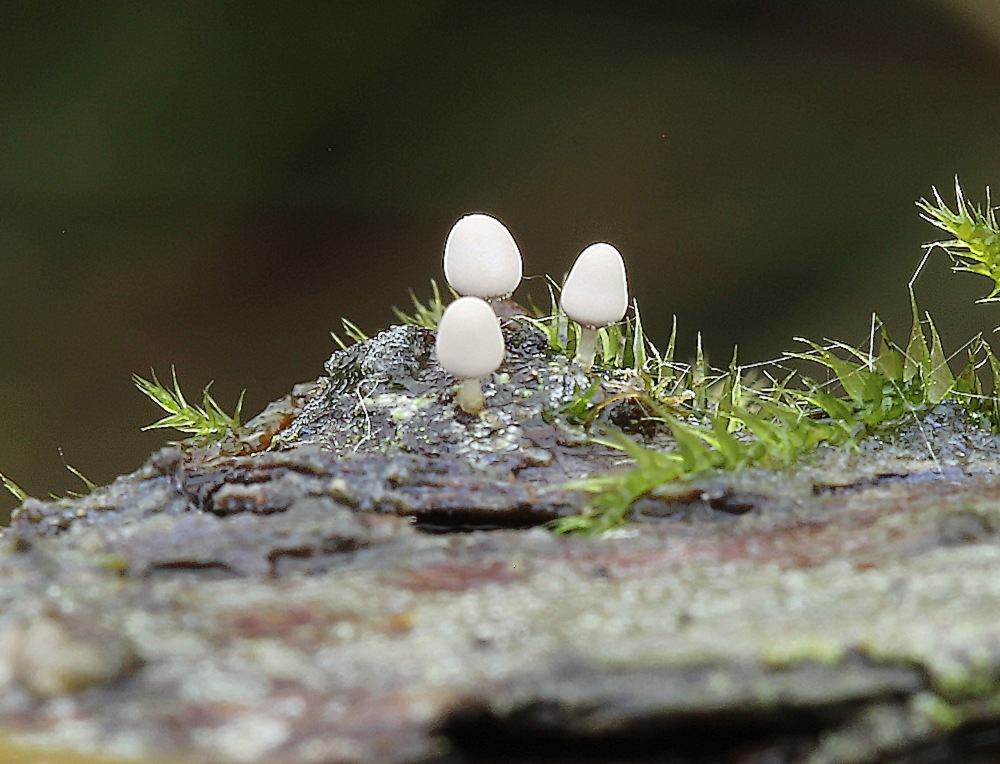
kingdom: Protozoa
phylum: Mycetozoa
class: Myxomycetes
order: Trichiales
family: Arcyriaceae
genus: Arcyria
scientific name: Arcyria cinerea
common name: White carnival candy slime mold
